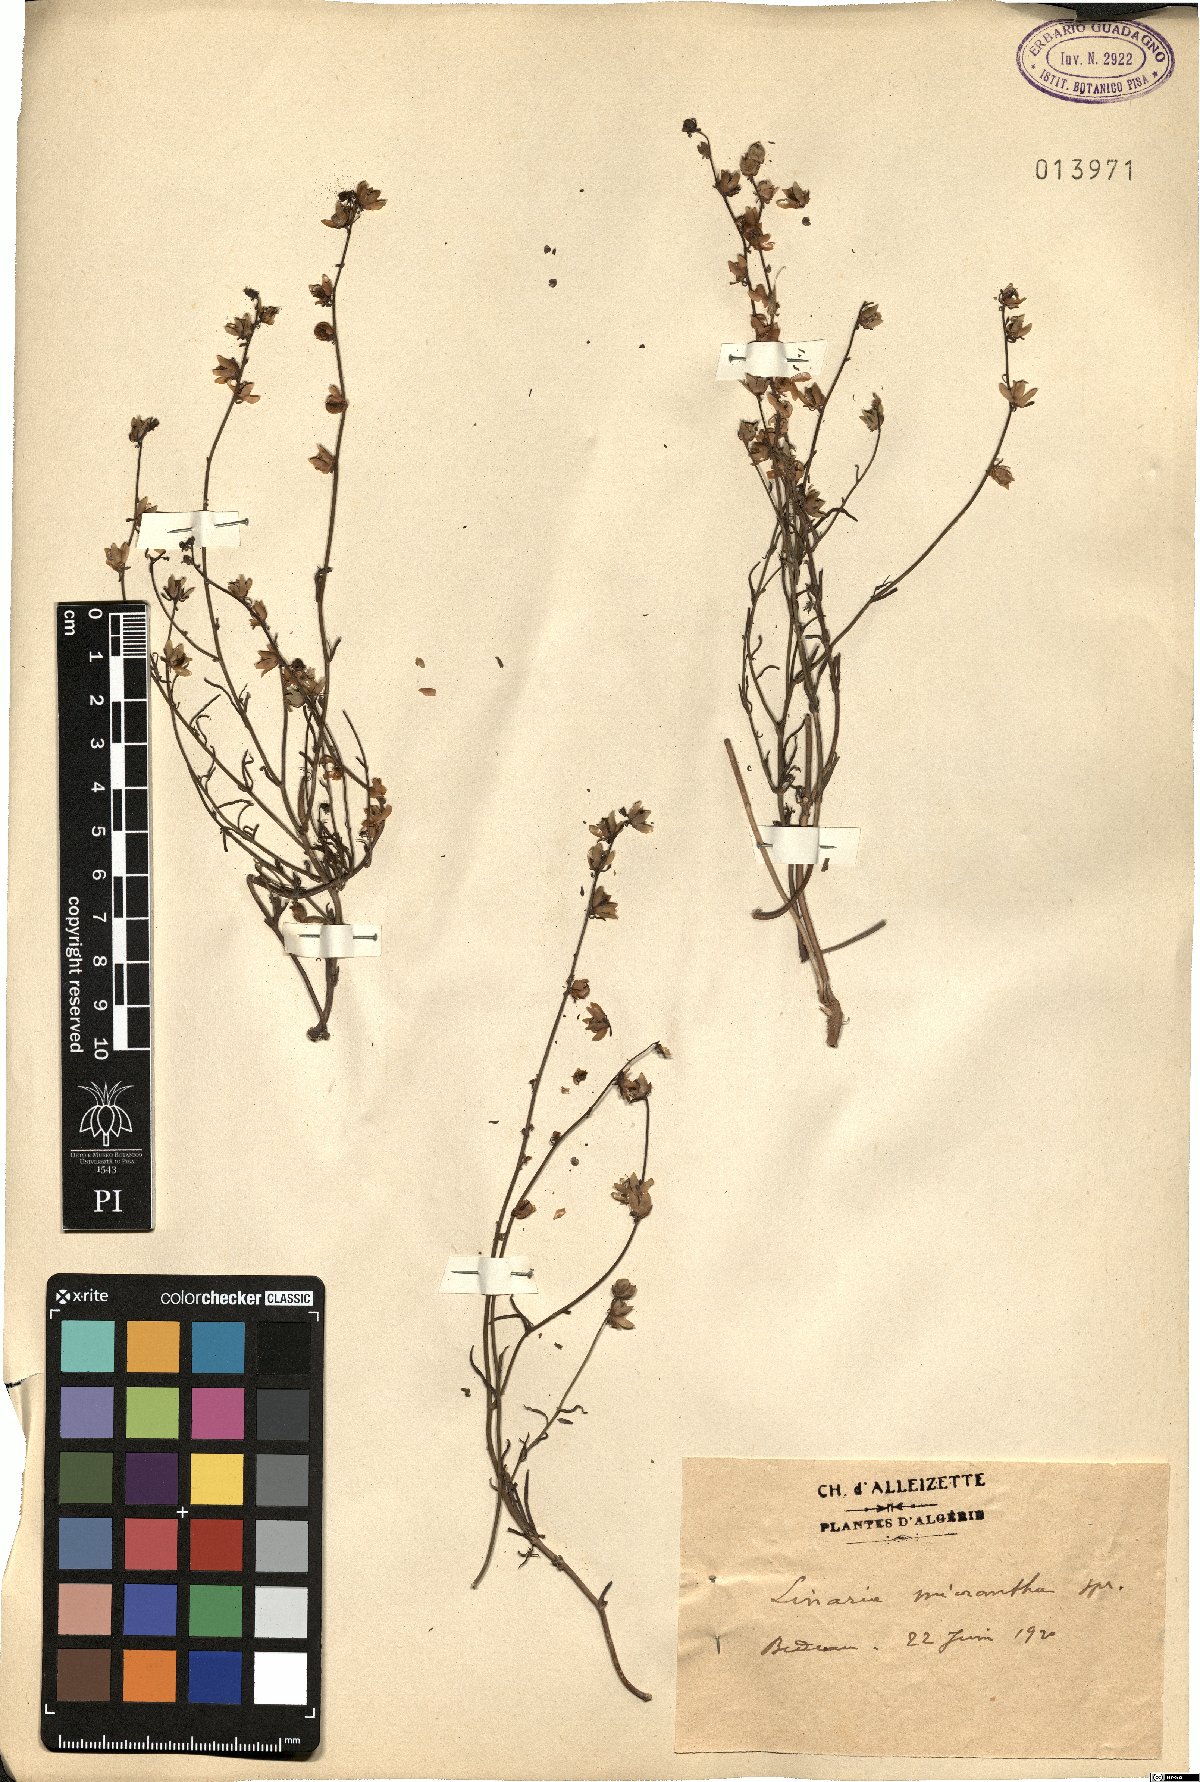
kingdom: Plantae
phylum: Tracheophyta
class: Magnoliopsida
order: Lamiales
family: Plantaginaceae
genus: Linaria
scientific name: Linaria micrantha
